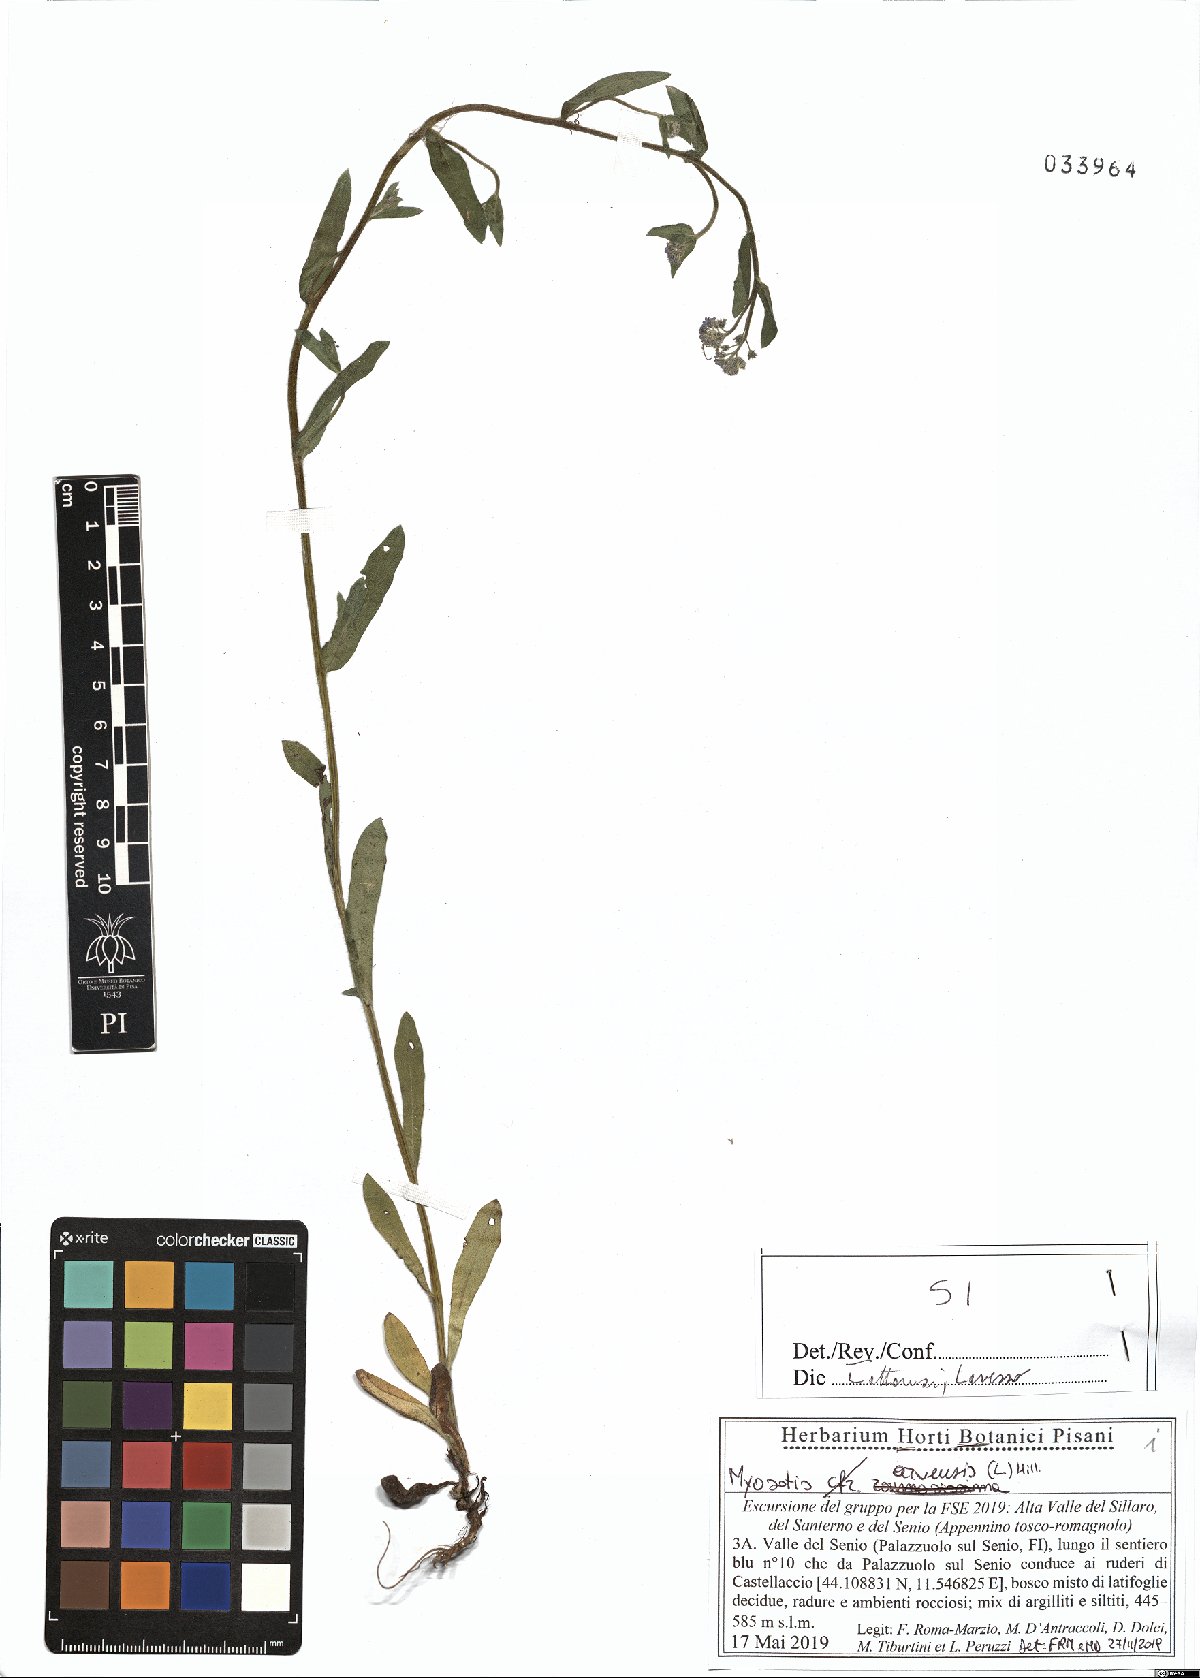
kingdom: Plantae
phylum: Tracheophyta
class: Magnoliopsida
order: Boraginales
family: Boraginaceae
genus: Myosotis
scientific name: Myosotis arvensis
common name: Field forget-me-not
